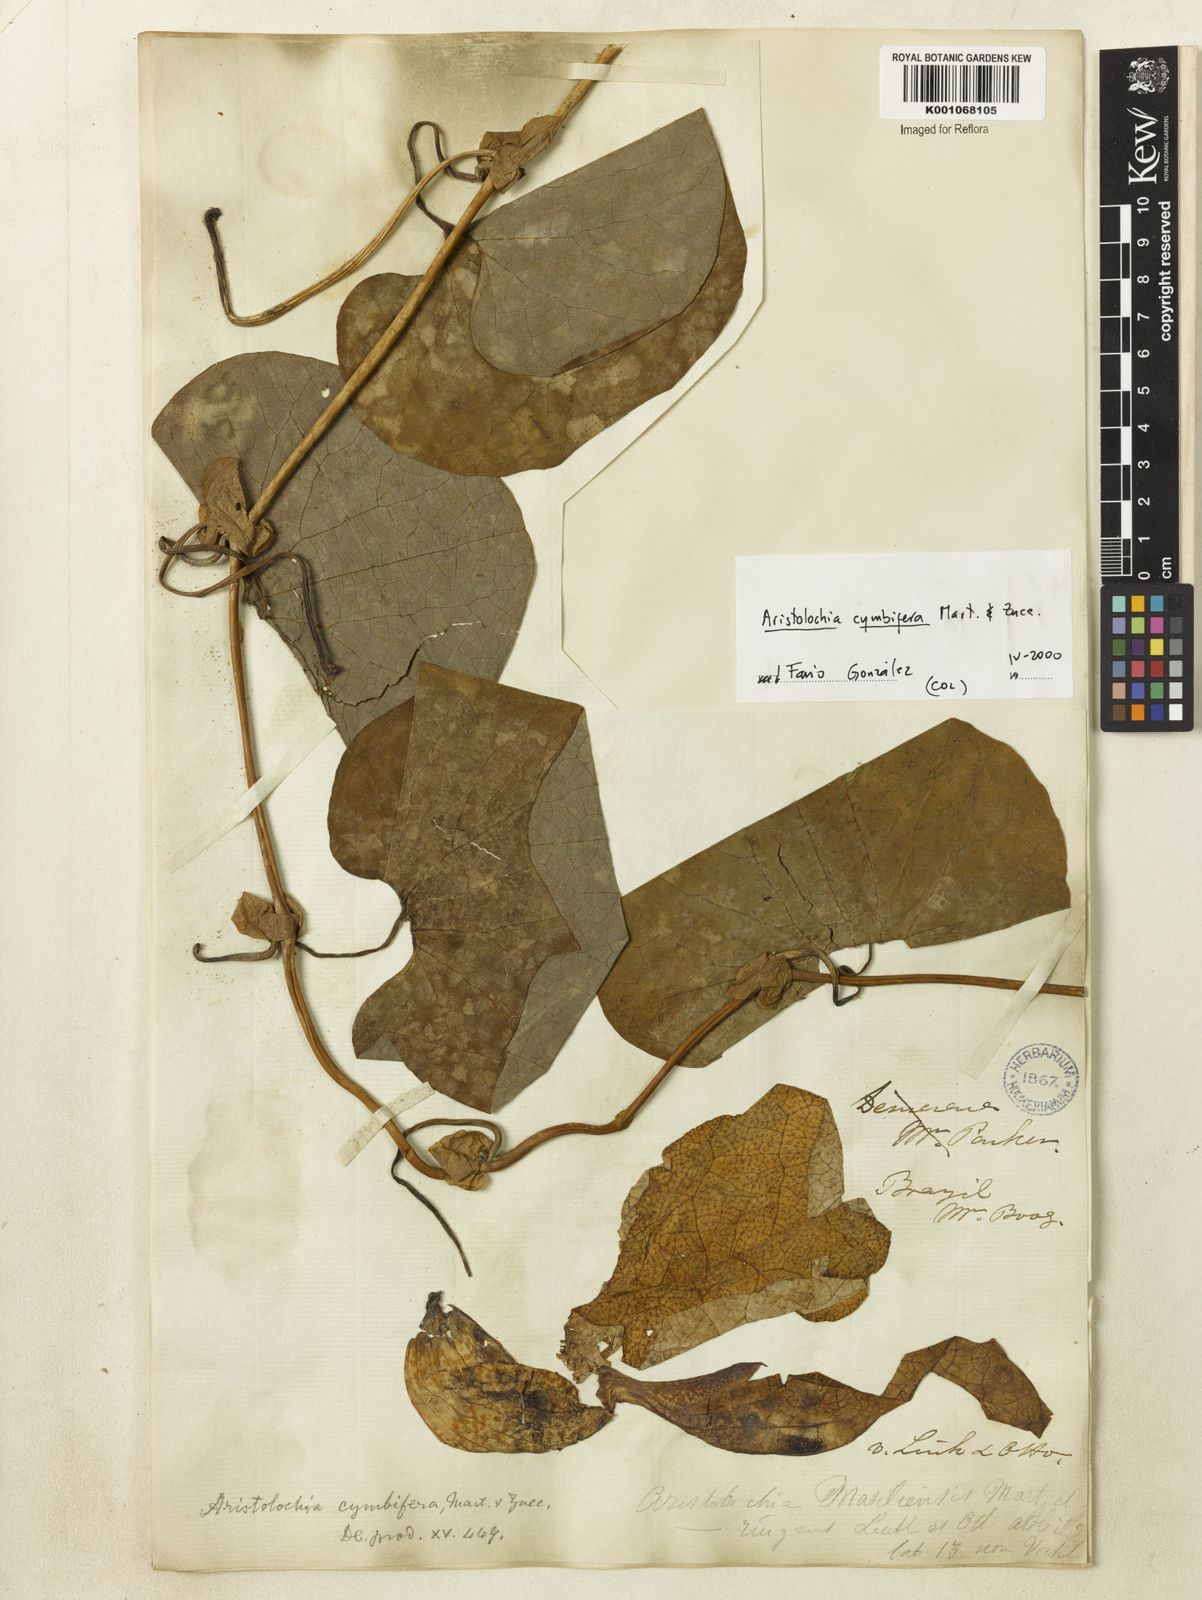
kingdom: Plantae
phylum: Tracheophyta
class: Magnoliopsida
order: Piperales
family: Aristolochiaceae
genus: Aristolochia
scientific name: Aristolochia cymbifera
